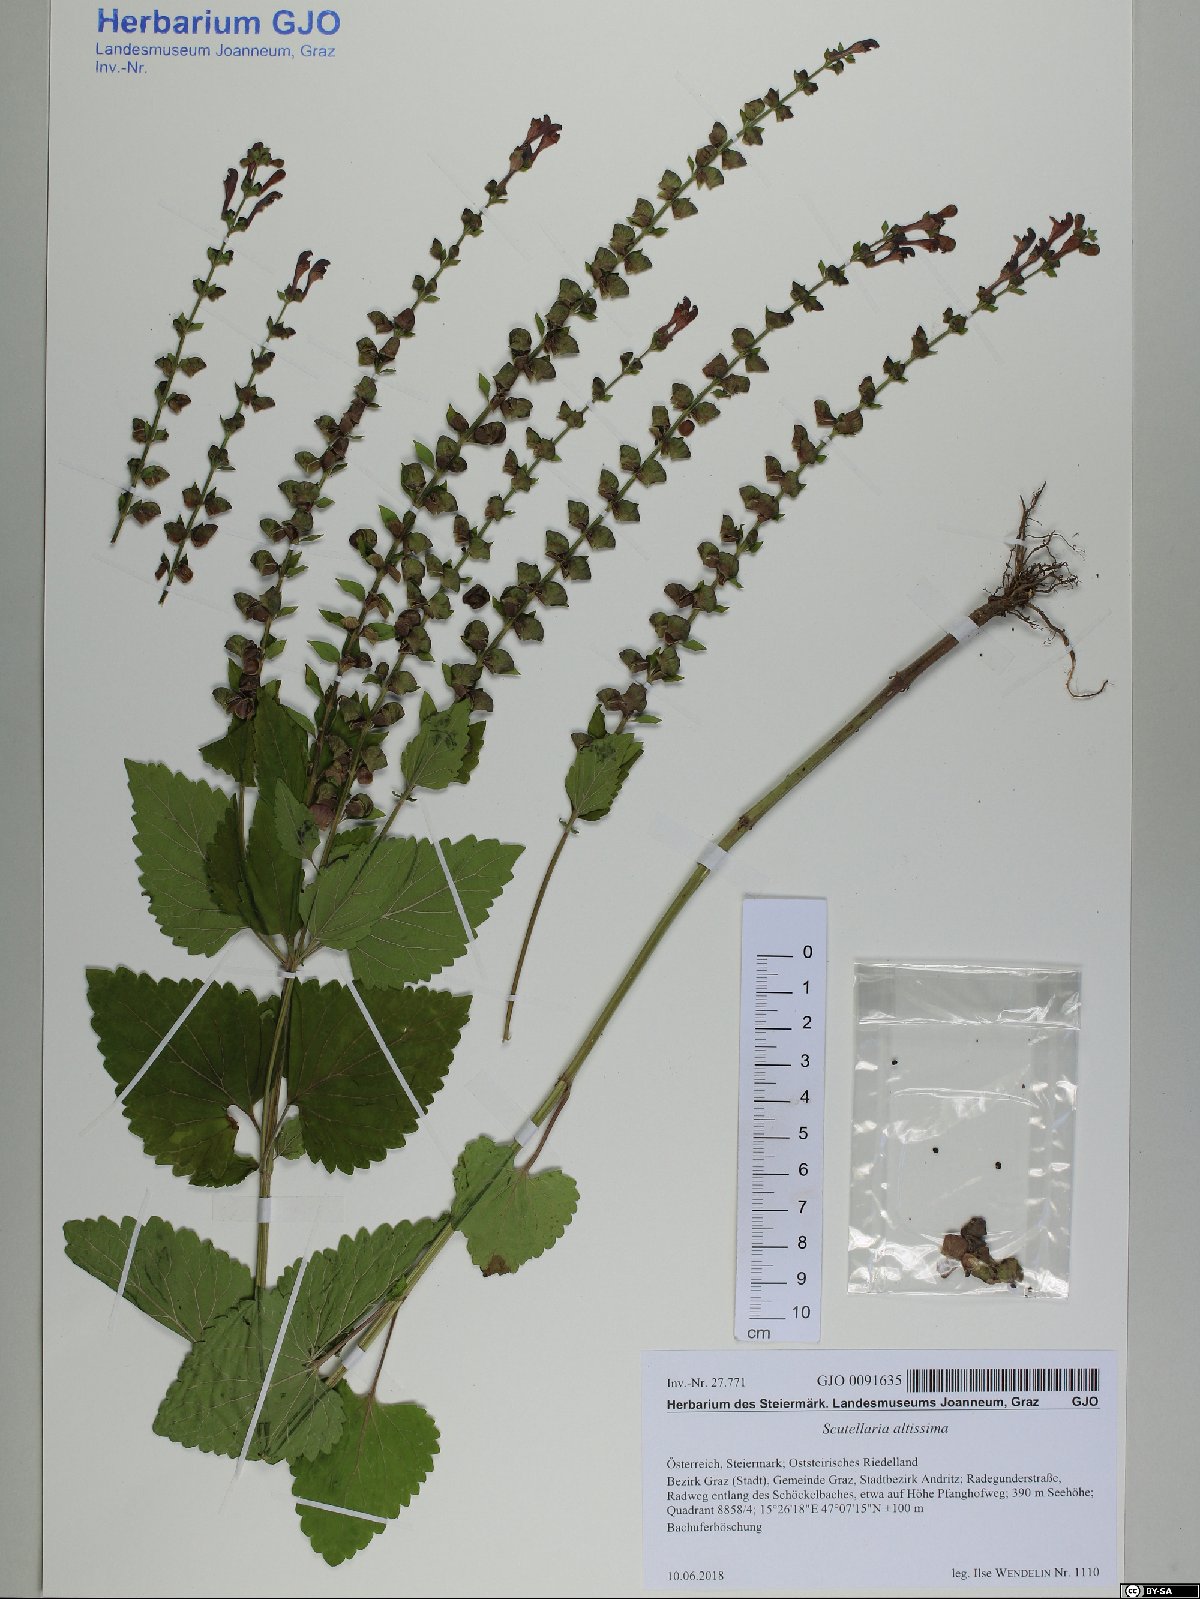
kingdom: Plantae
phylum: Tracheophyta
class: Magnoliopsida
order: Lamiales
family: Lamiaceae
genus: Scutellaria
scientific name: Scutellaria altissima
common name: Somerset skullcap
